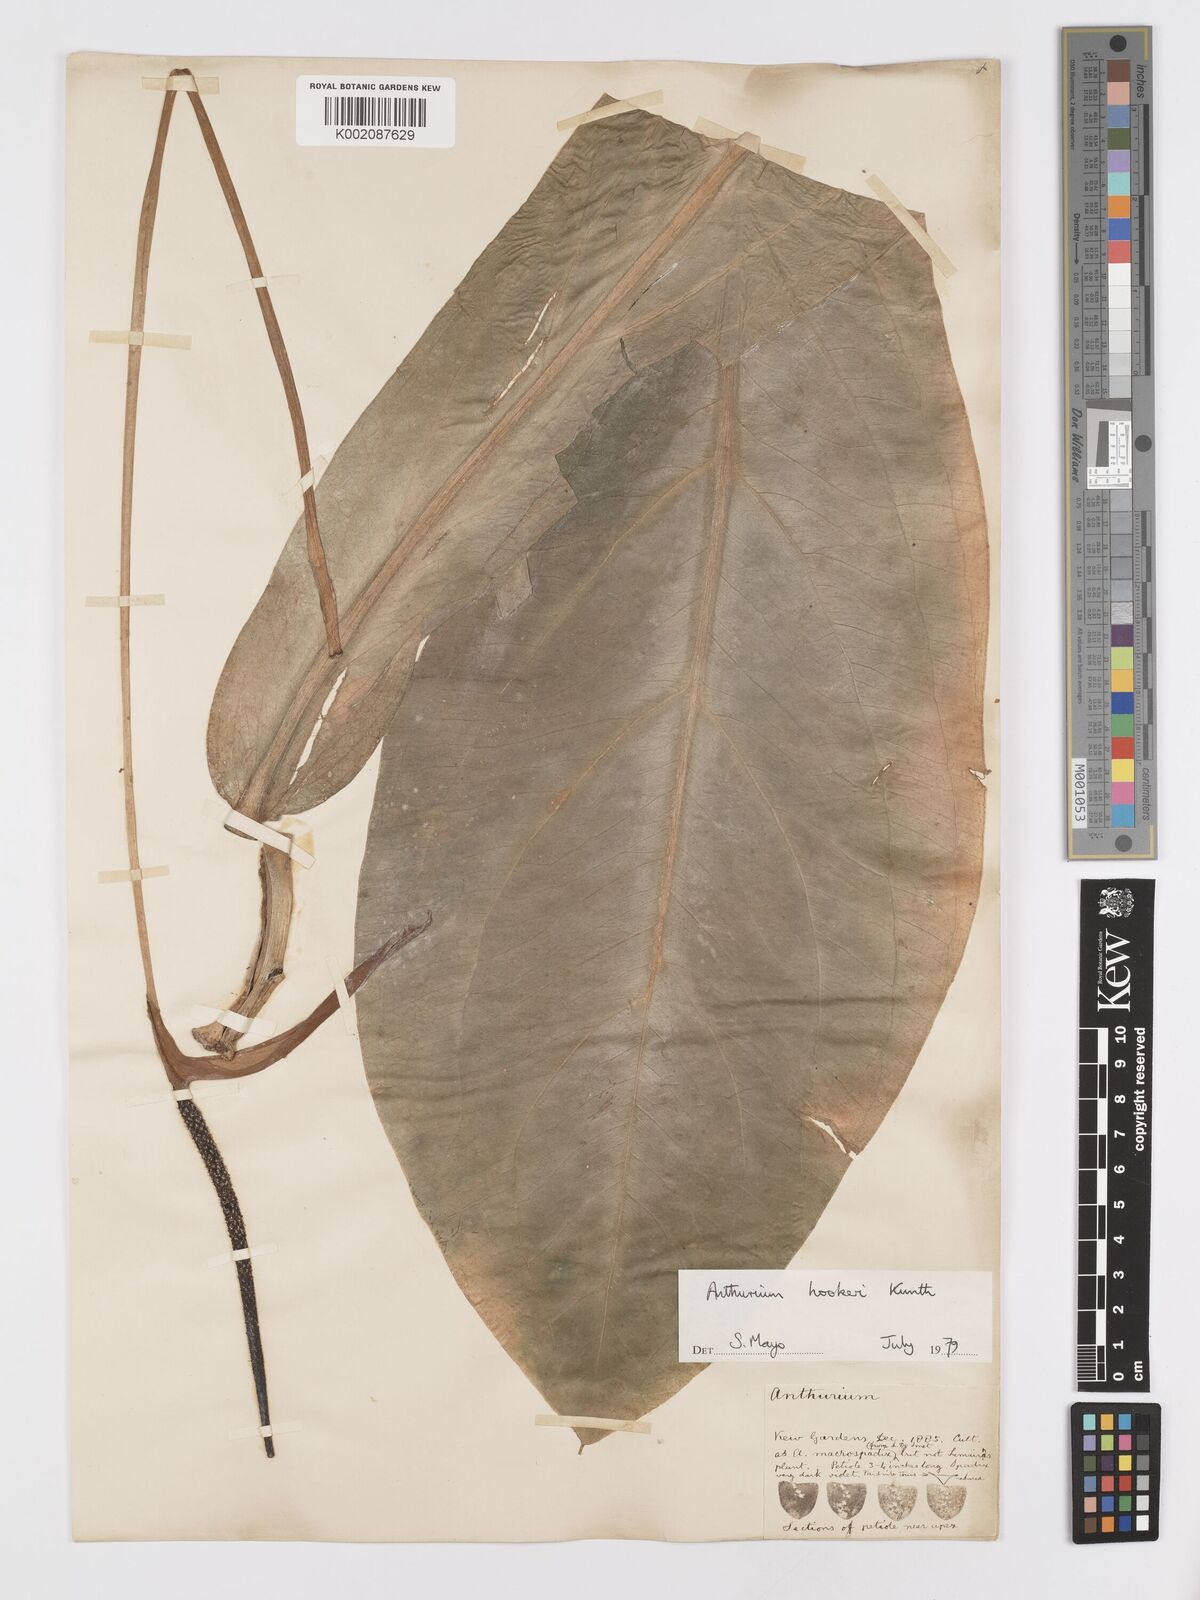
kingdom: Plantae
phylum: Tracheophyta
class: Liliopsida
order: Alismatales
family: Araceae
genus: Anthurium
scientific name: Anthurium hookeri
